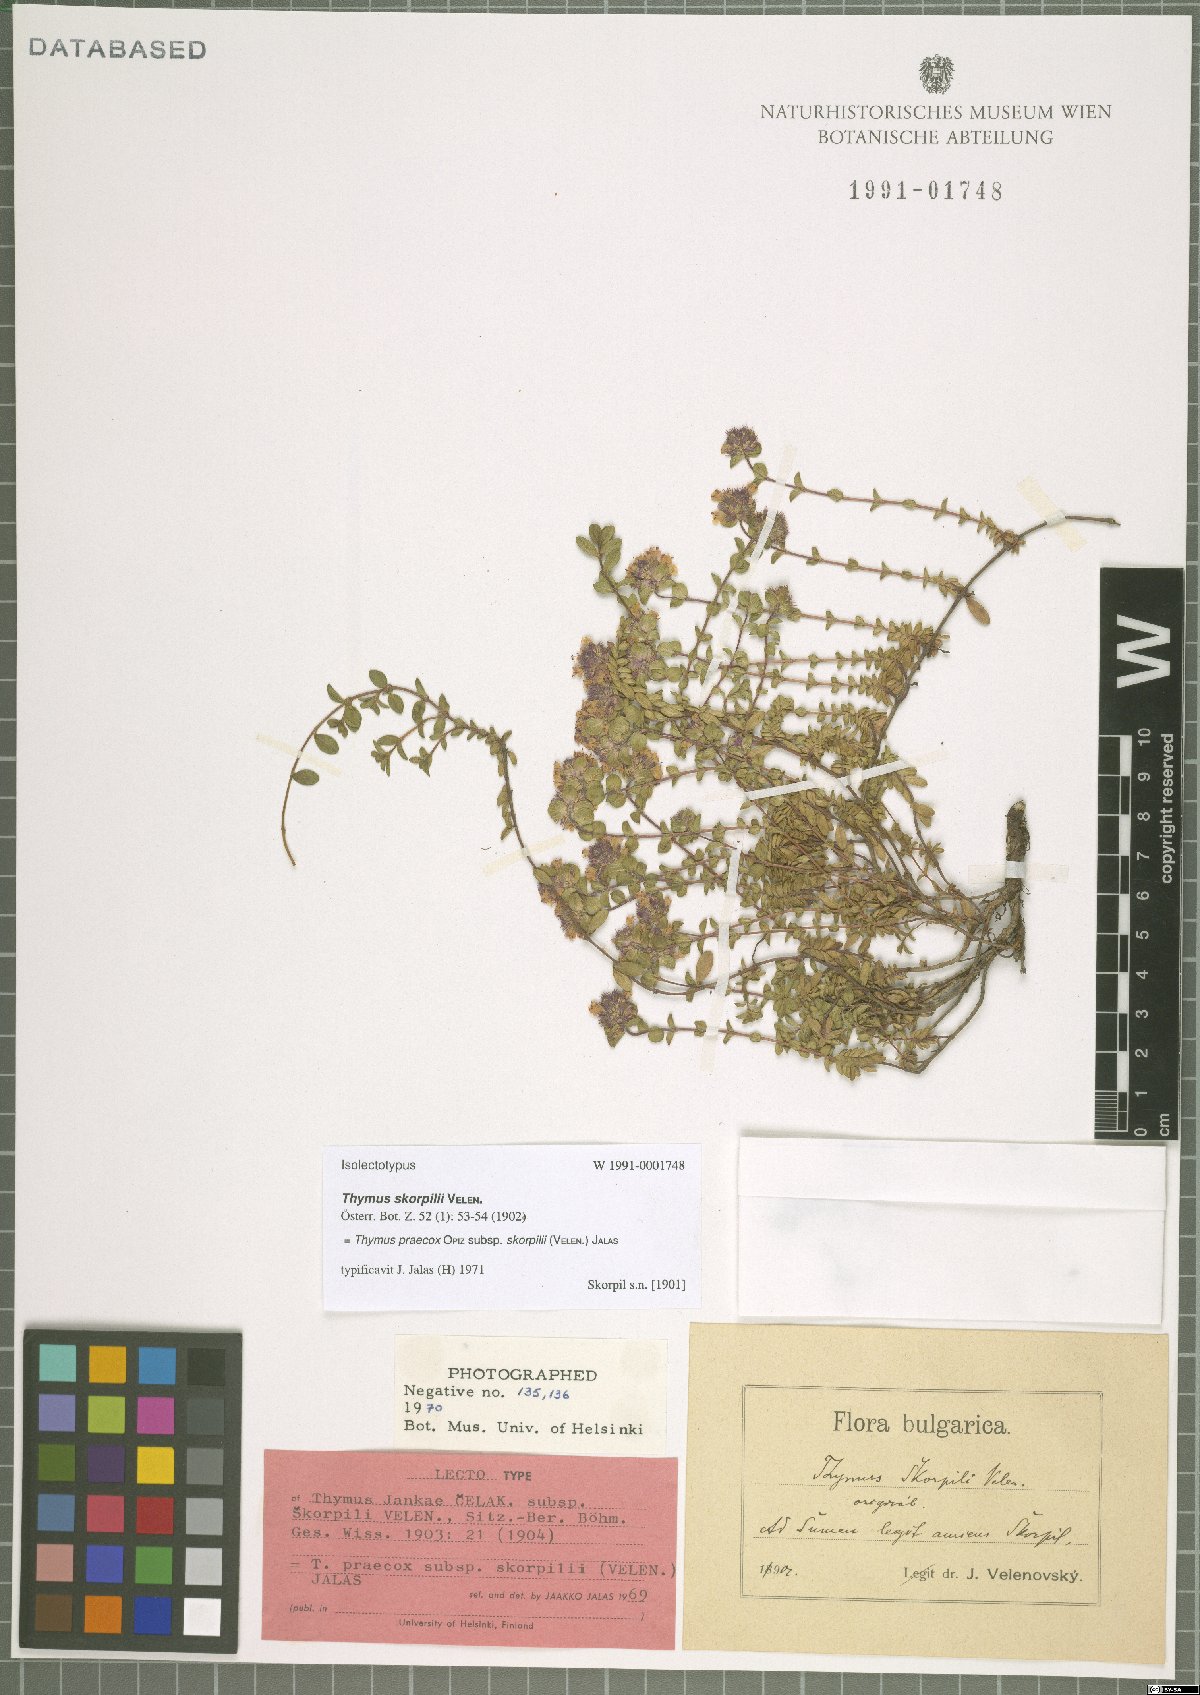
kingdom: Plantae
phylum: Tracheophyta
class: Magnoliopsida
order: Lamiales
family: Lamiaceae
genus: Thymus
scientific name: Thymus jankae
